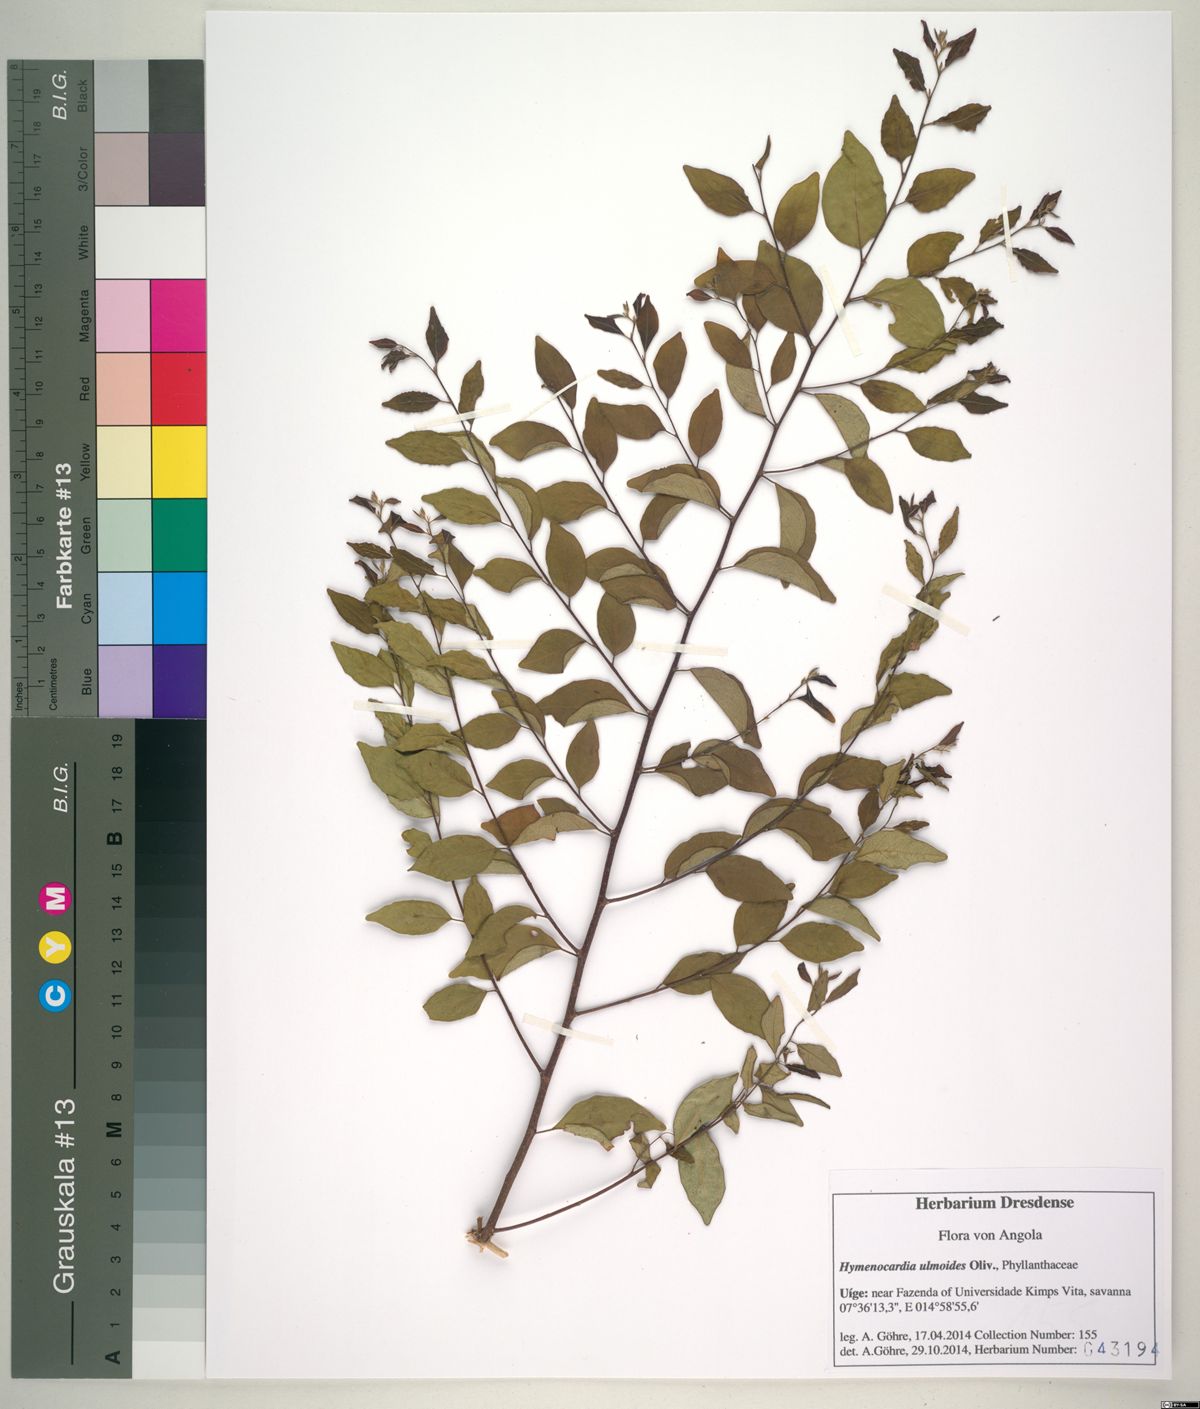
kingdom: Plantae
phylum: Tracheophyta
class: Magnoliopsida
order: Malpighiales
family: Phyllanthaceae
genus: Hymenocardia
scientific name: Hymenocardia ulmoides
